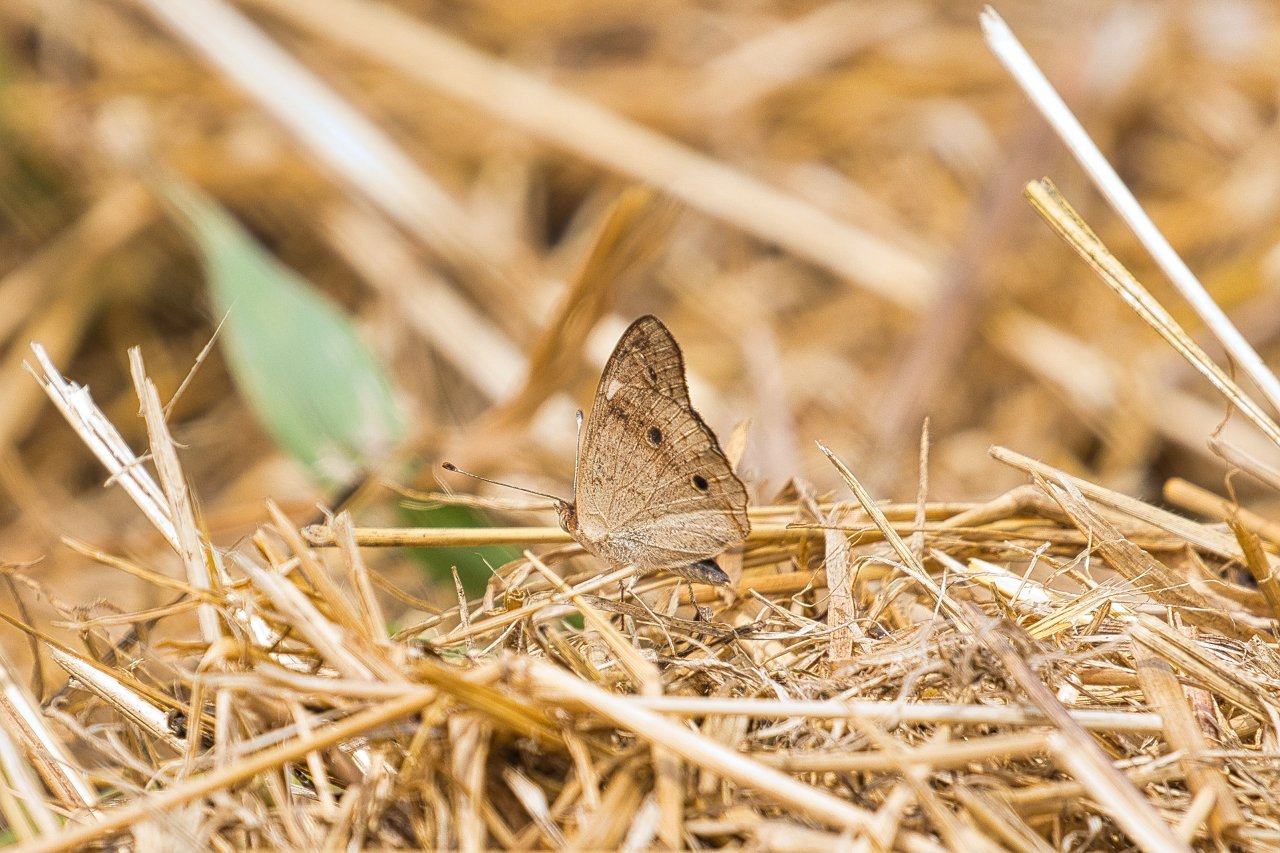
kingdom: Animalia
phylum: Arthropoda
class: Insecta
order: Lepidoptera
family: Nymphalidae
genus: Junonia
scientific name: Junonia coenia
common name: Common Buckeye
